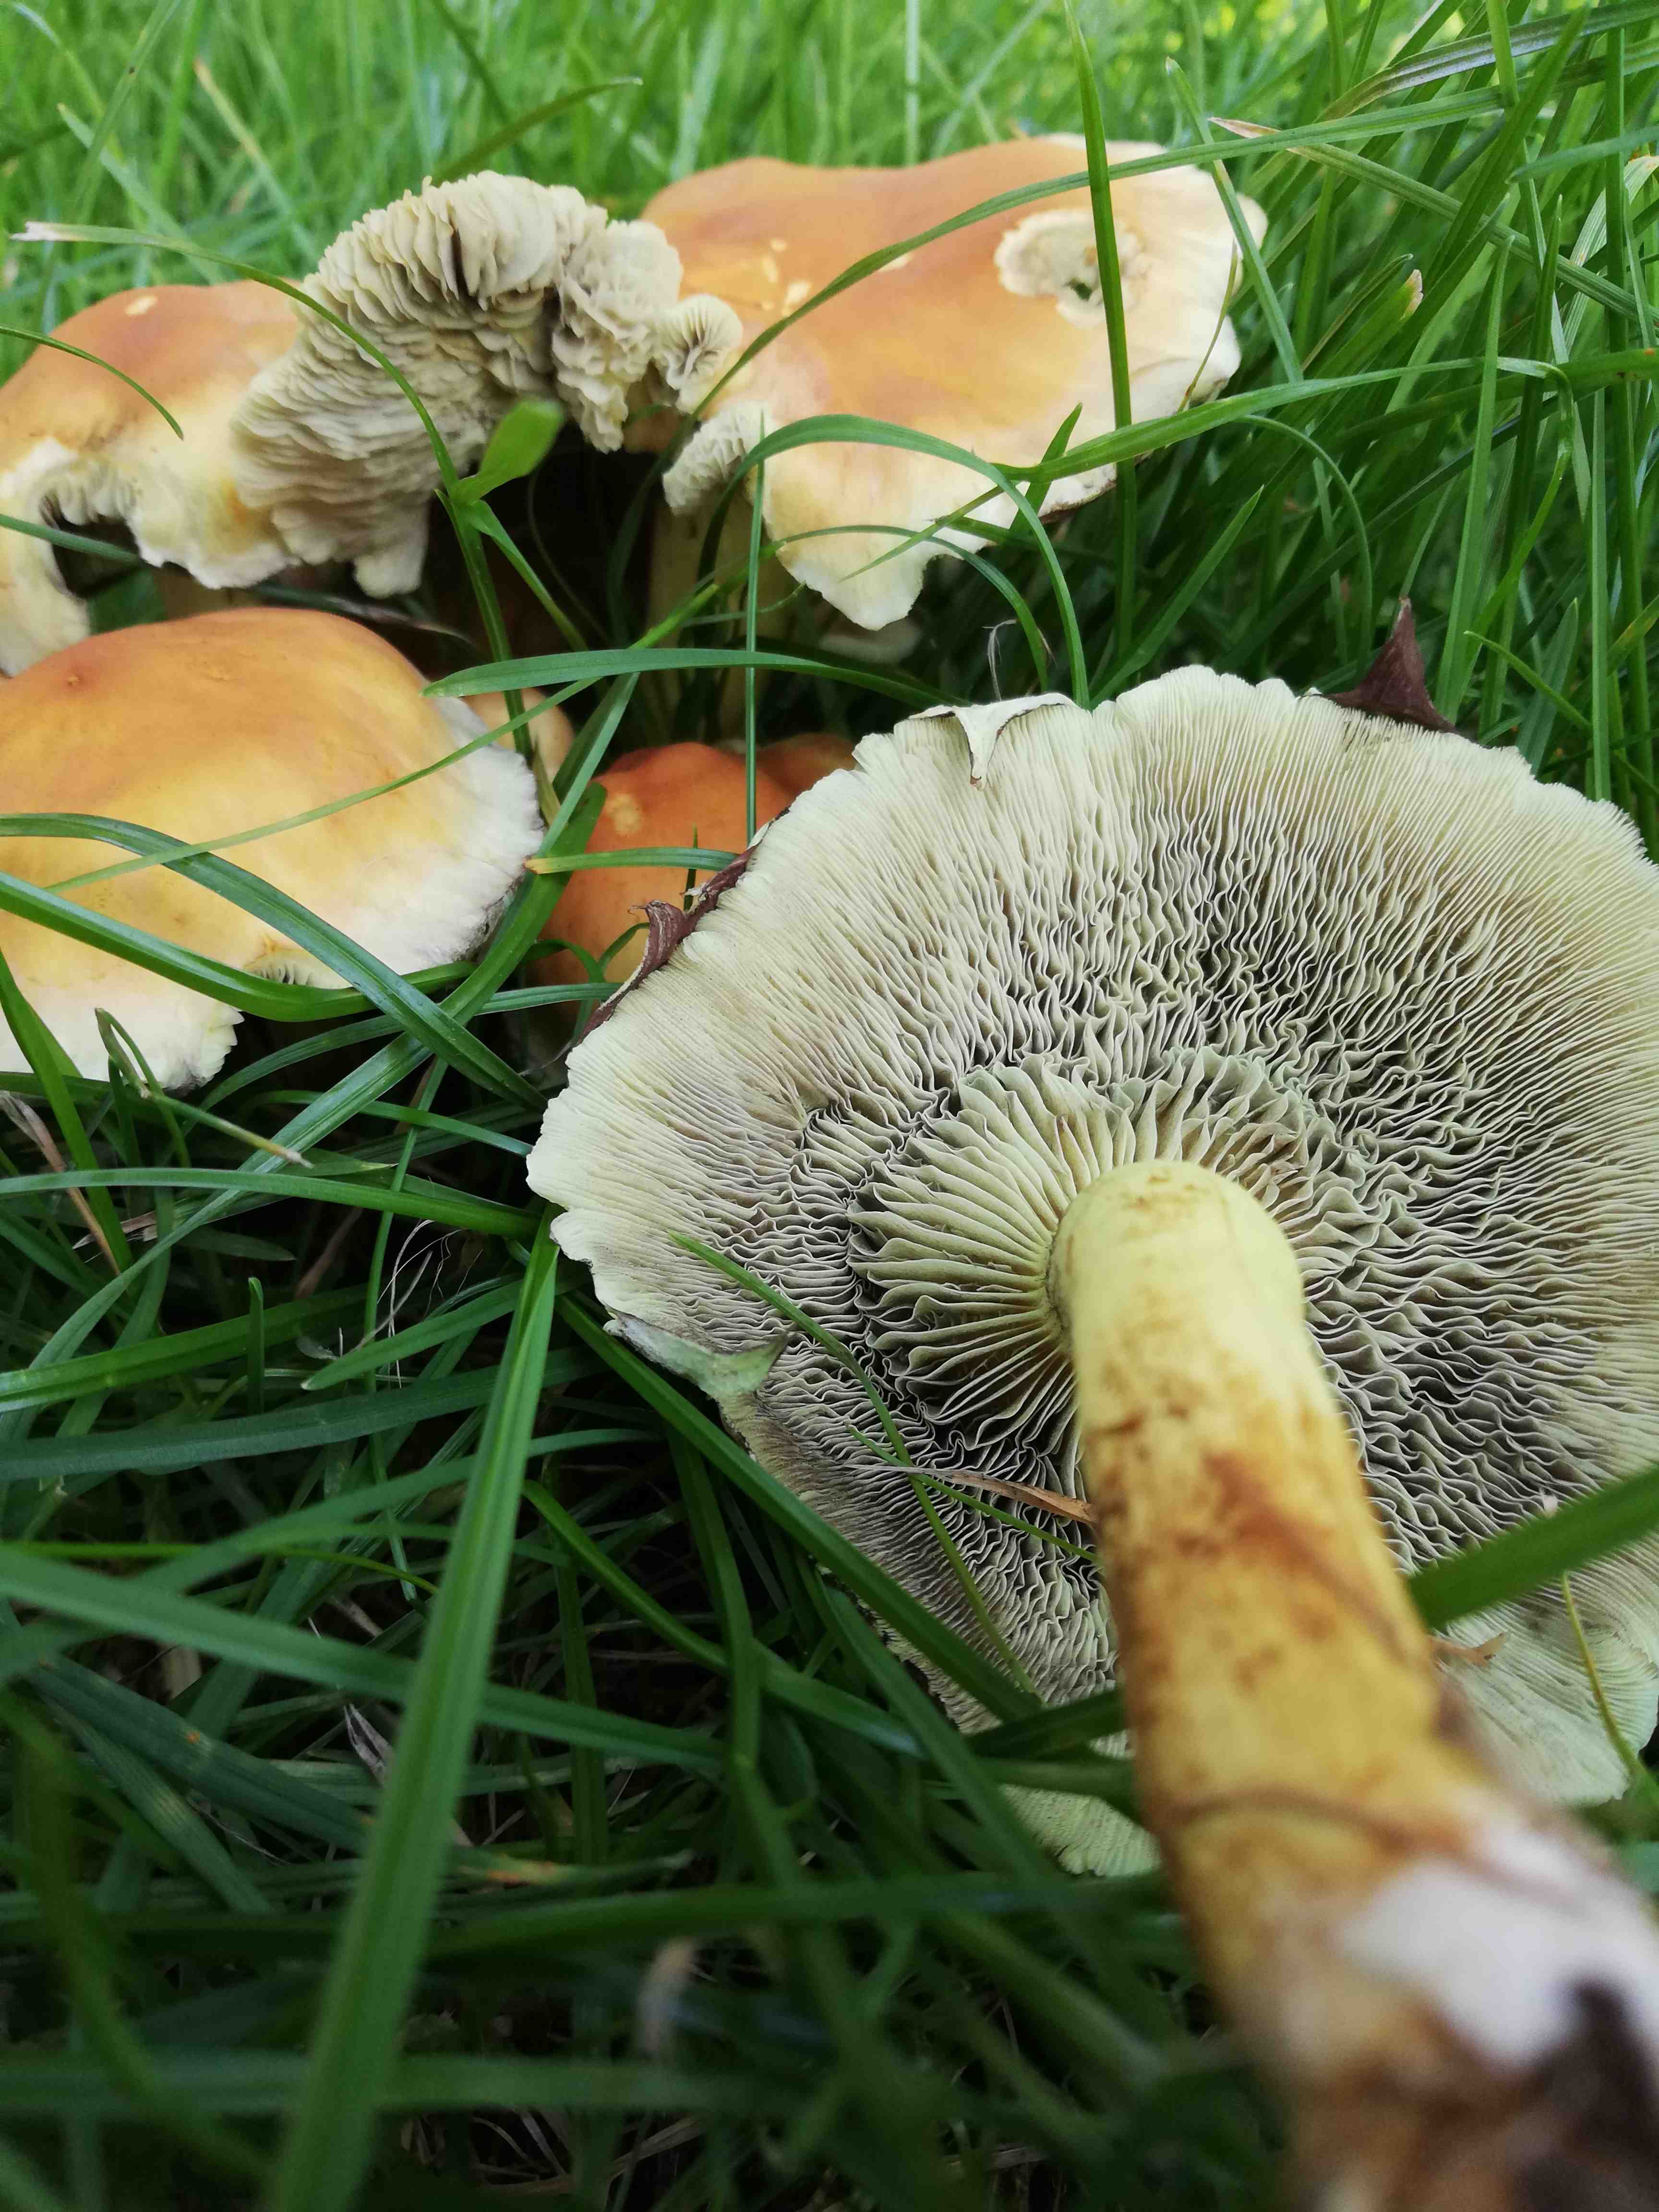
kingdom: Fungi
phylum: Basidiomycota
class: Agaricomycetes
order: Agaricales
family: Strophariaceae
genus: Hypholoma
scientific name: Hypholoma fasciculare
